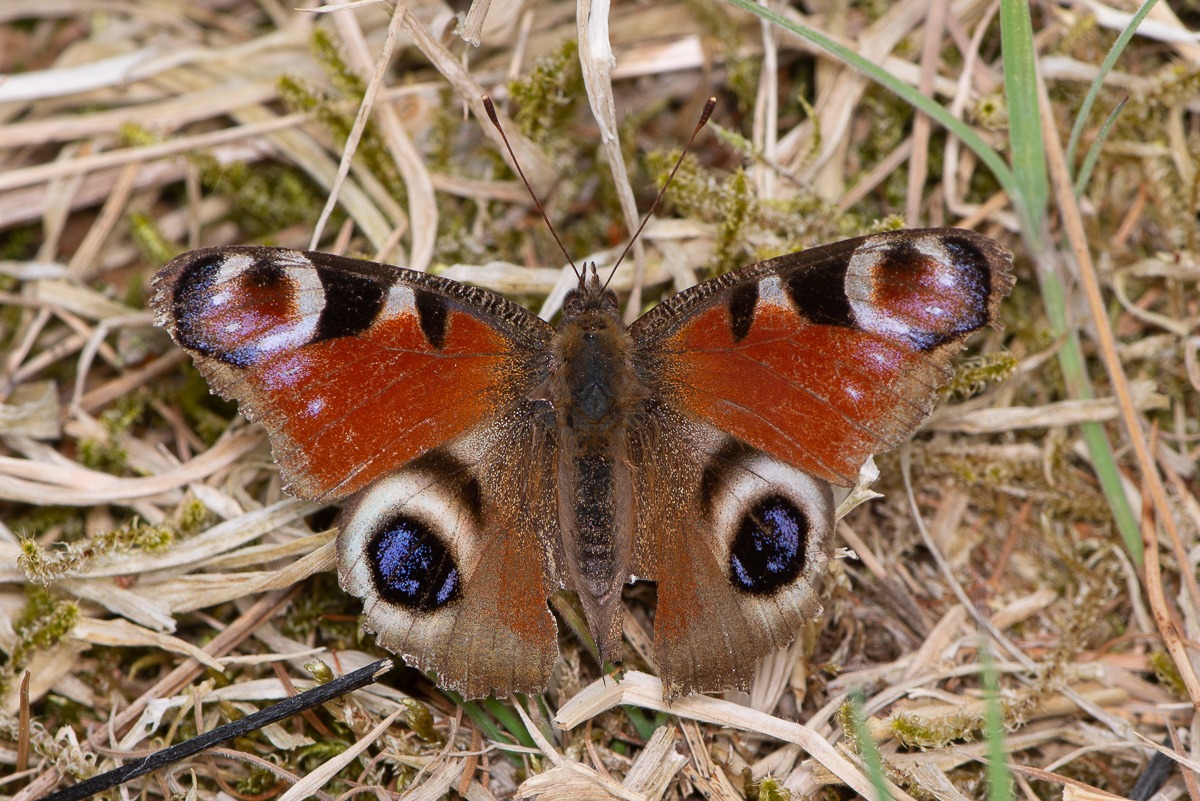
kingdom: Animalia
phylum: Arthropoda
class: Insecta
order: Lepidoptera
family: Nymphalidae
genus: Aglais
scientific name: Aglais io
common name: Dagpåfugleøje
